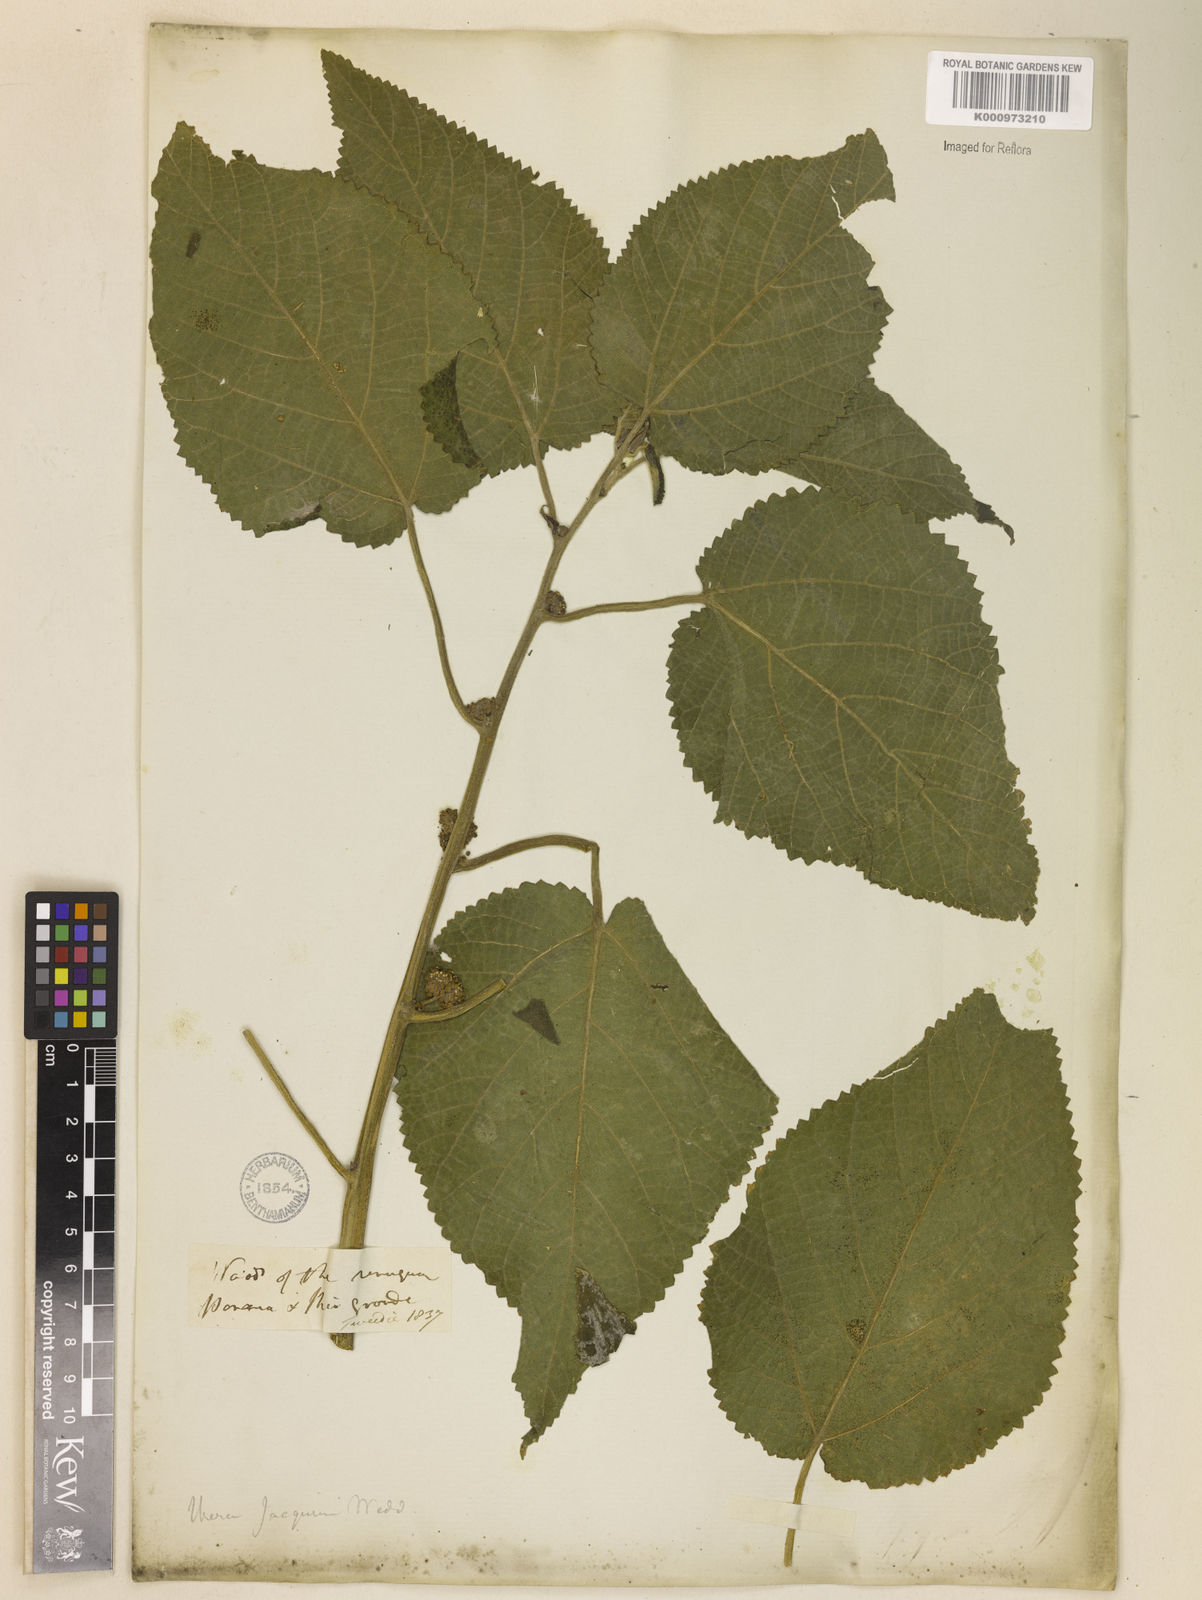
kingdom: Plantae
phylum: Tracheophyta
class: Magnoliopsida
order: Rosales
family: Urticaceae
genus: Urera
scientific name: Urera caracasana
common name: Flameberry
